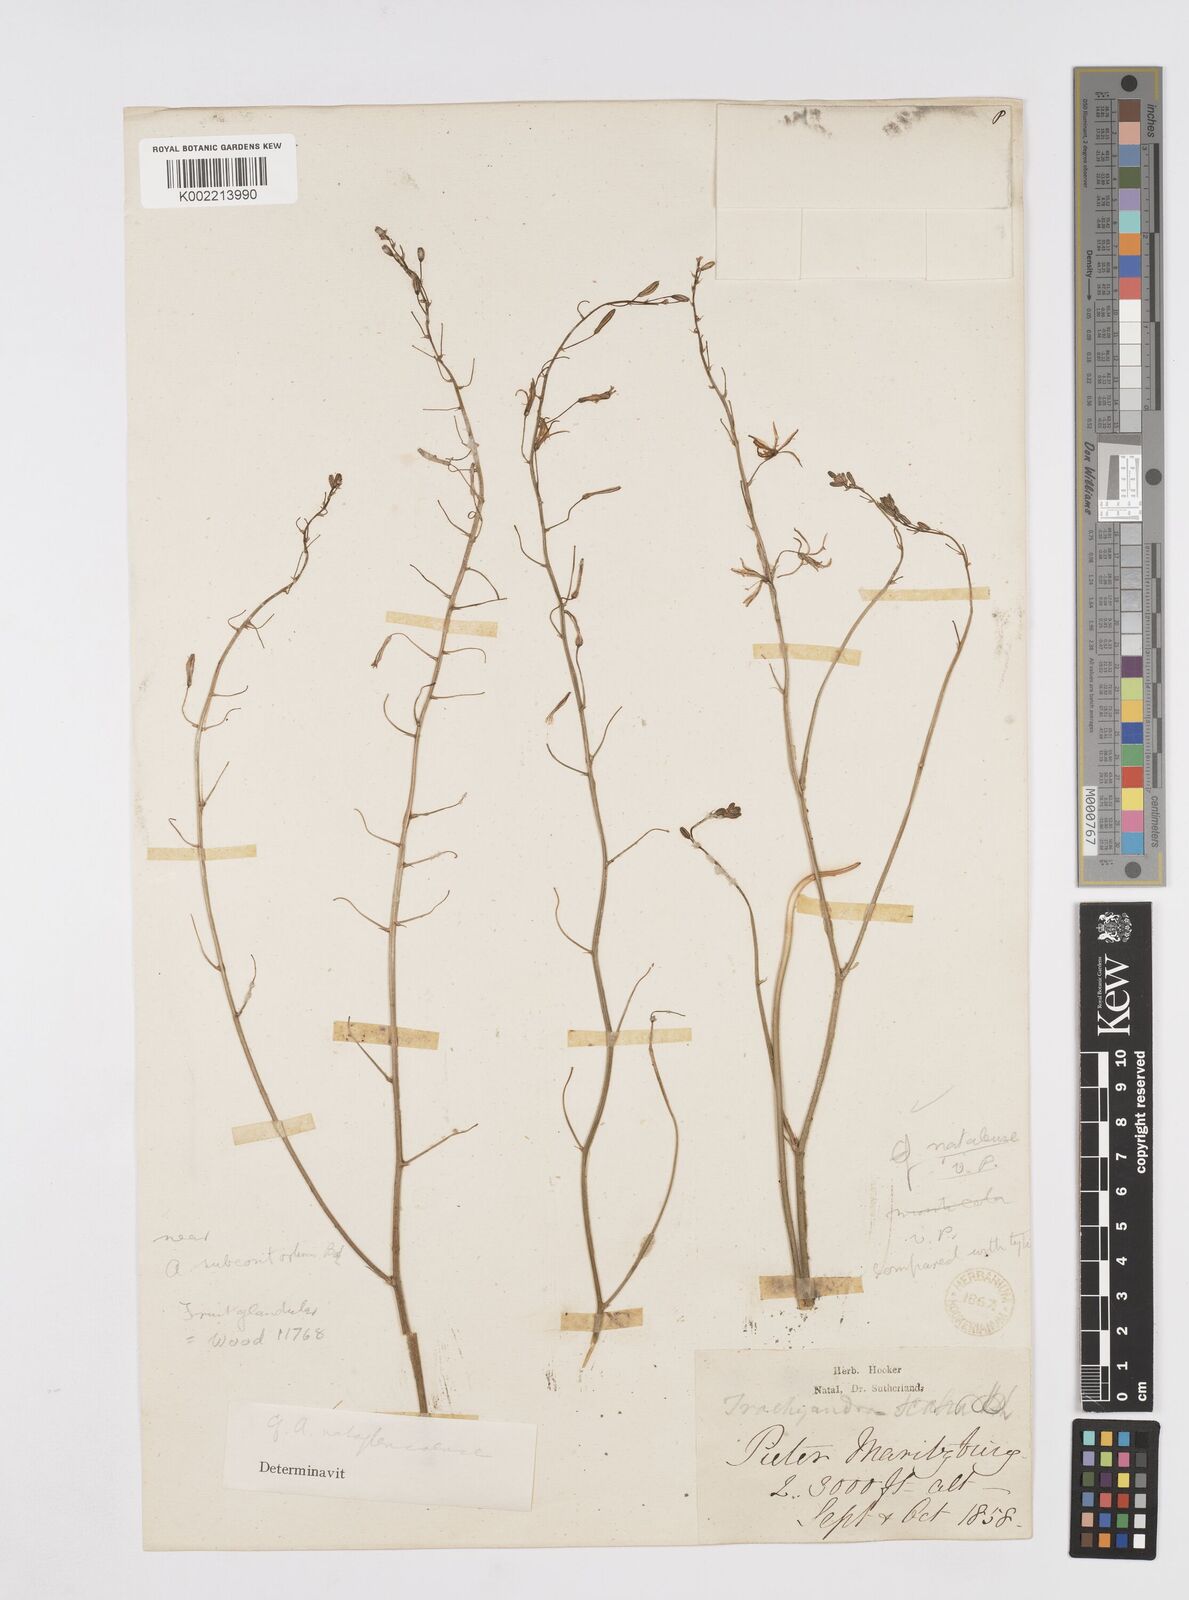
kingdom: Plantae
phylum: Tracheophyta
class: Liliopsida
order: Asparagales
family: Asphodelaceae
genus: Trachyandra
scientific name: Trachyandra asperata
